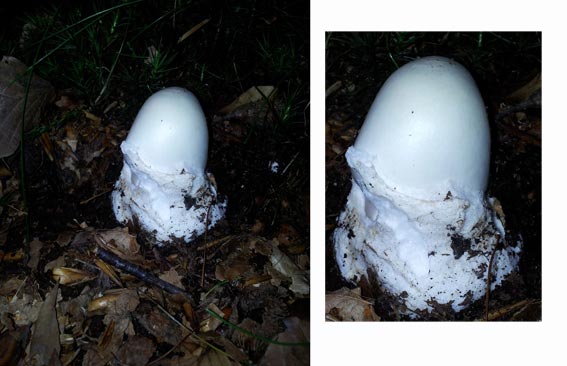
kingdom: Fungi
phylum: Basidiomycota
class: Agaricomycetes
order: Agaricales
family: Amanitaceae
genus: Amanita
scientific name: Amanita virosa
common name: snehvid fluesvamp
